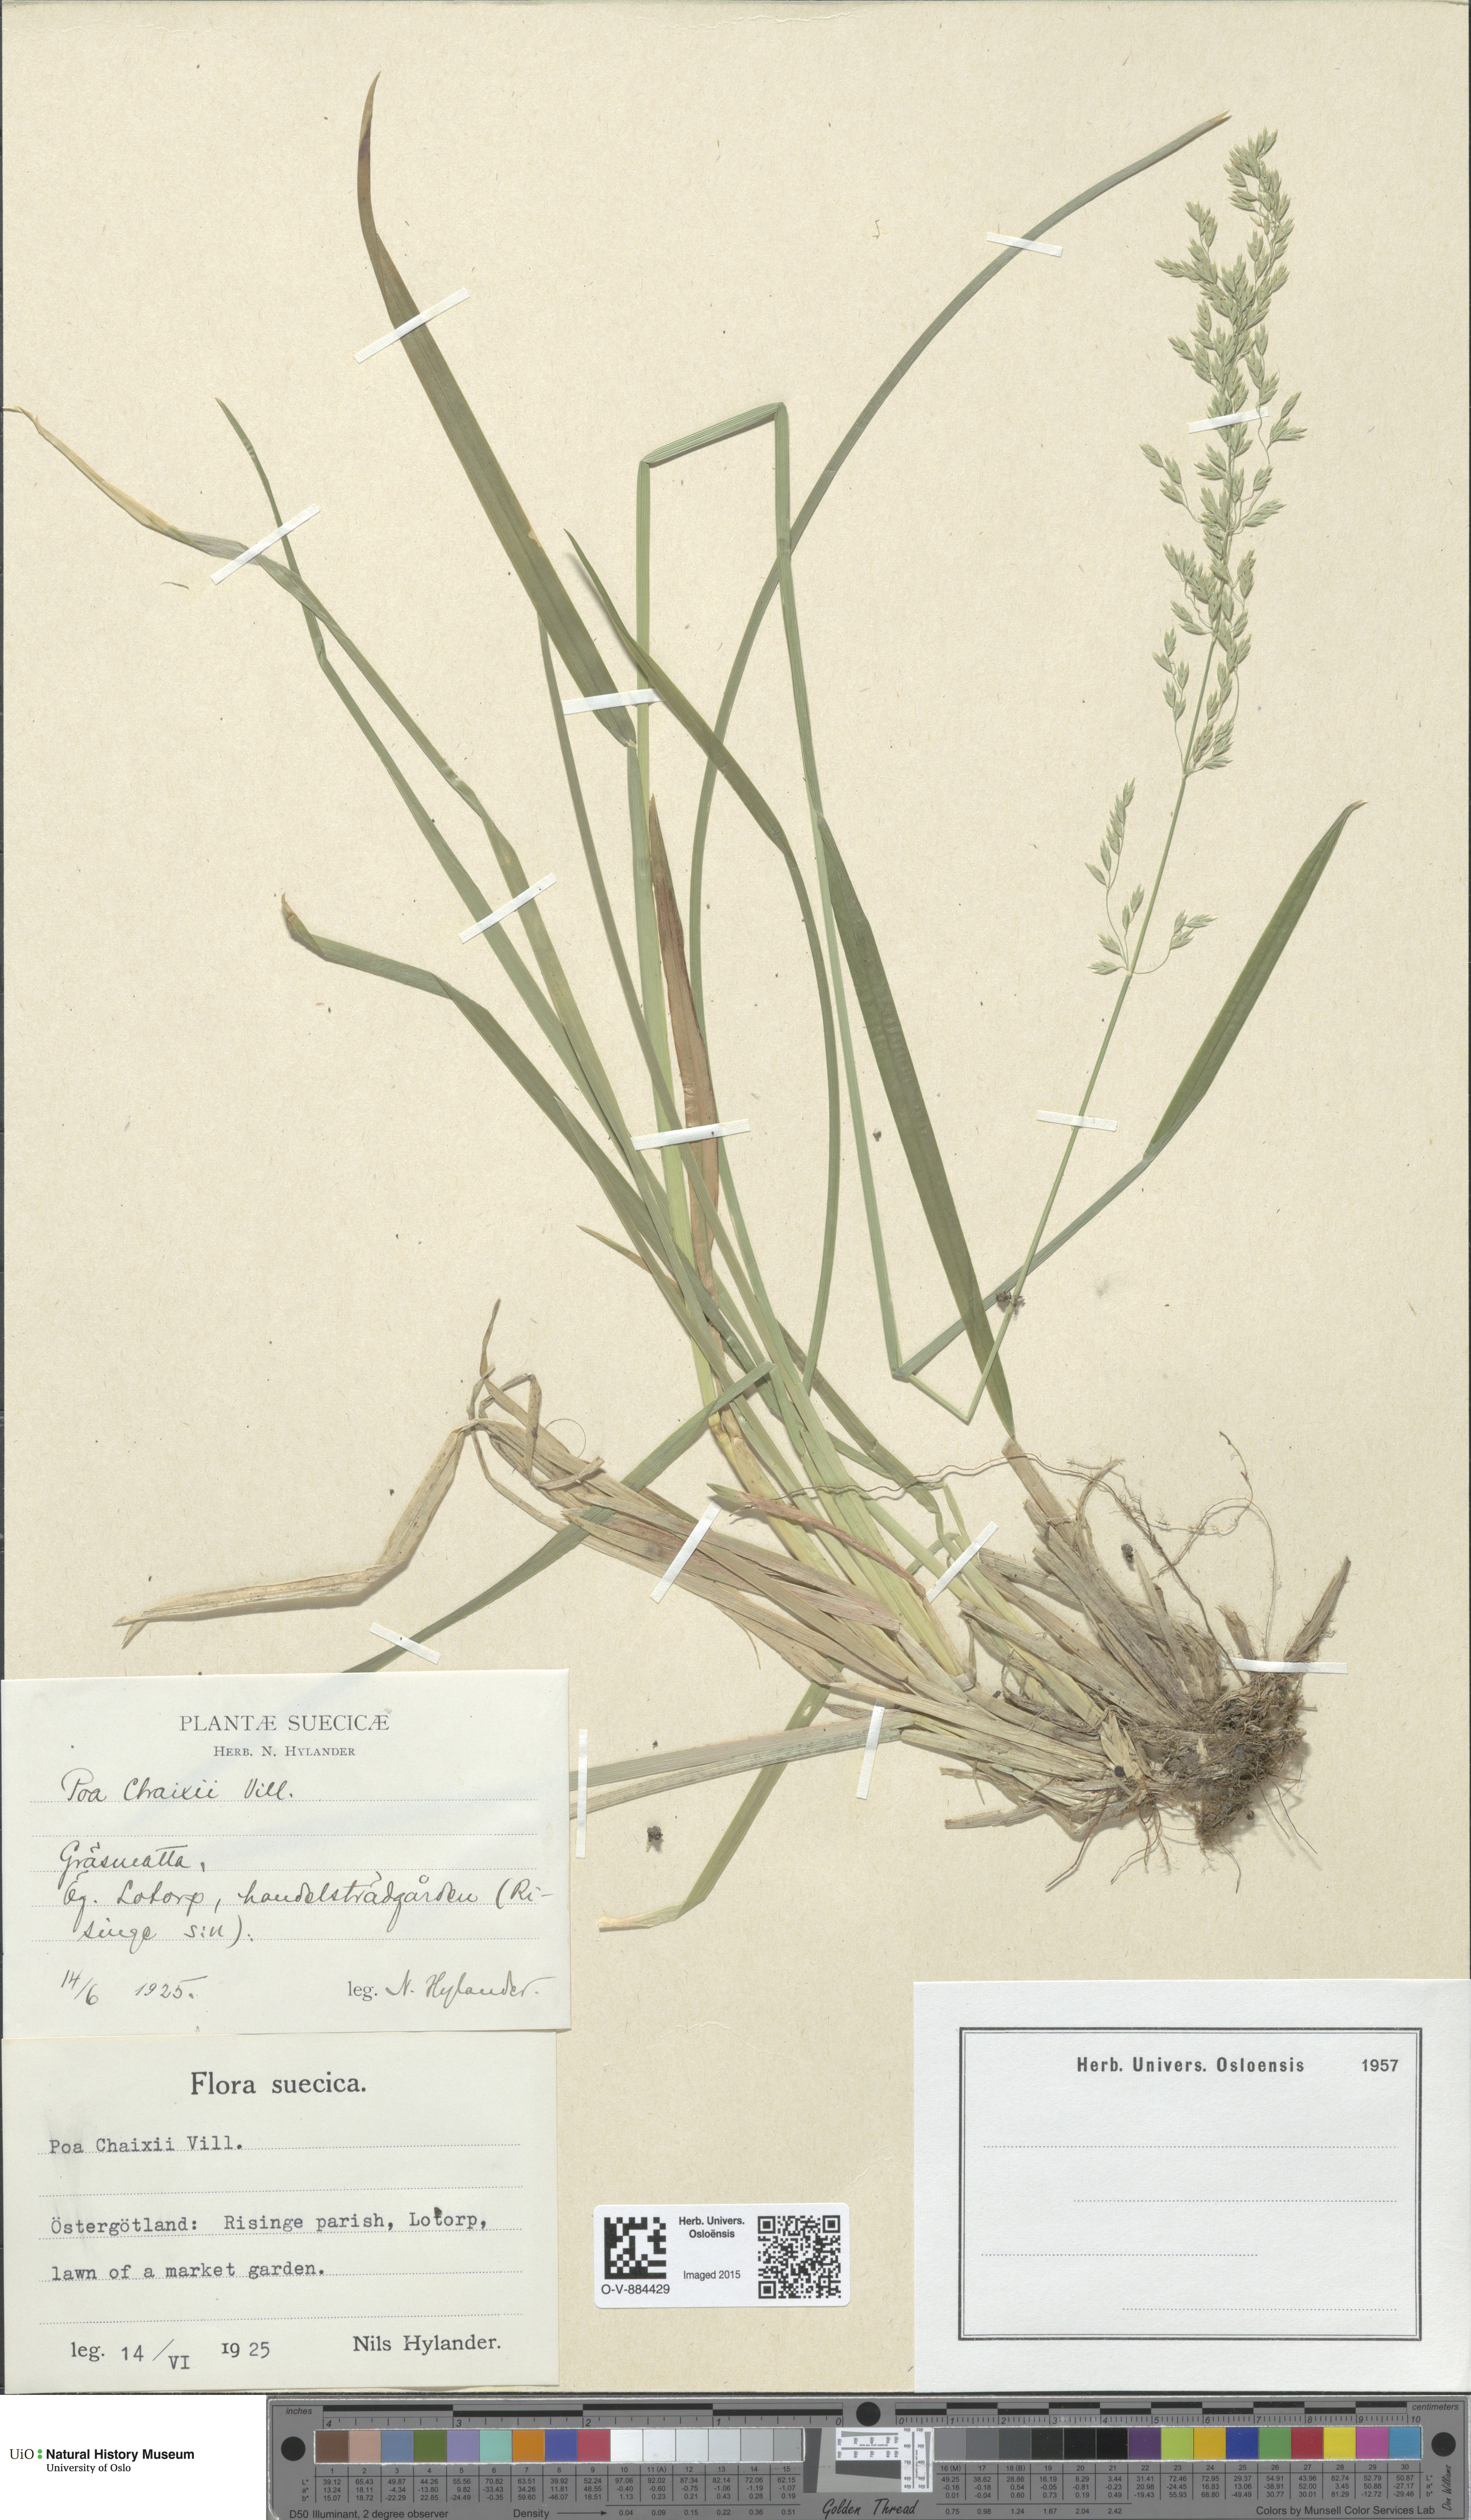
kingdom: Plantae
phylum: Tracheophyta
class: Liliopsida
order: Poales
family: Poaceae
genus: Poa
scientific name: Poa chaixii
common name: Broad-leaved meadow-grass
